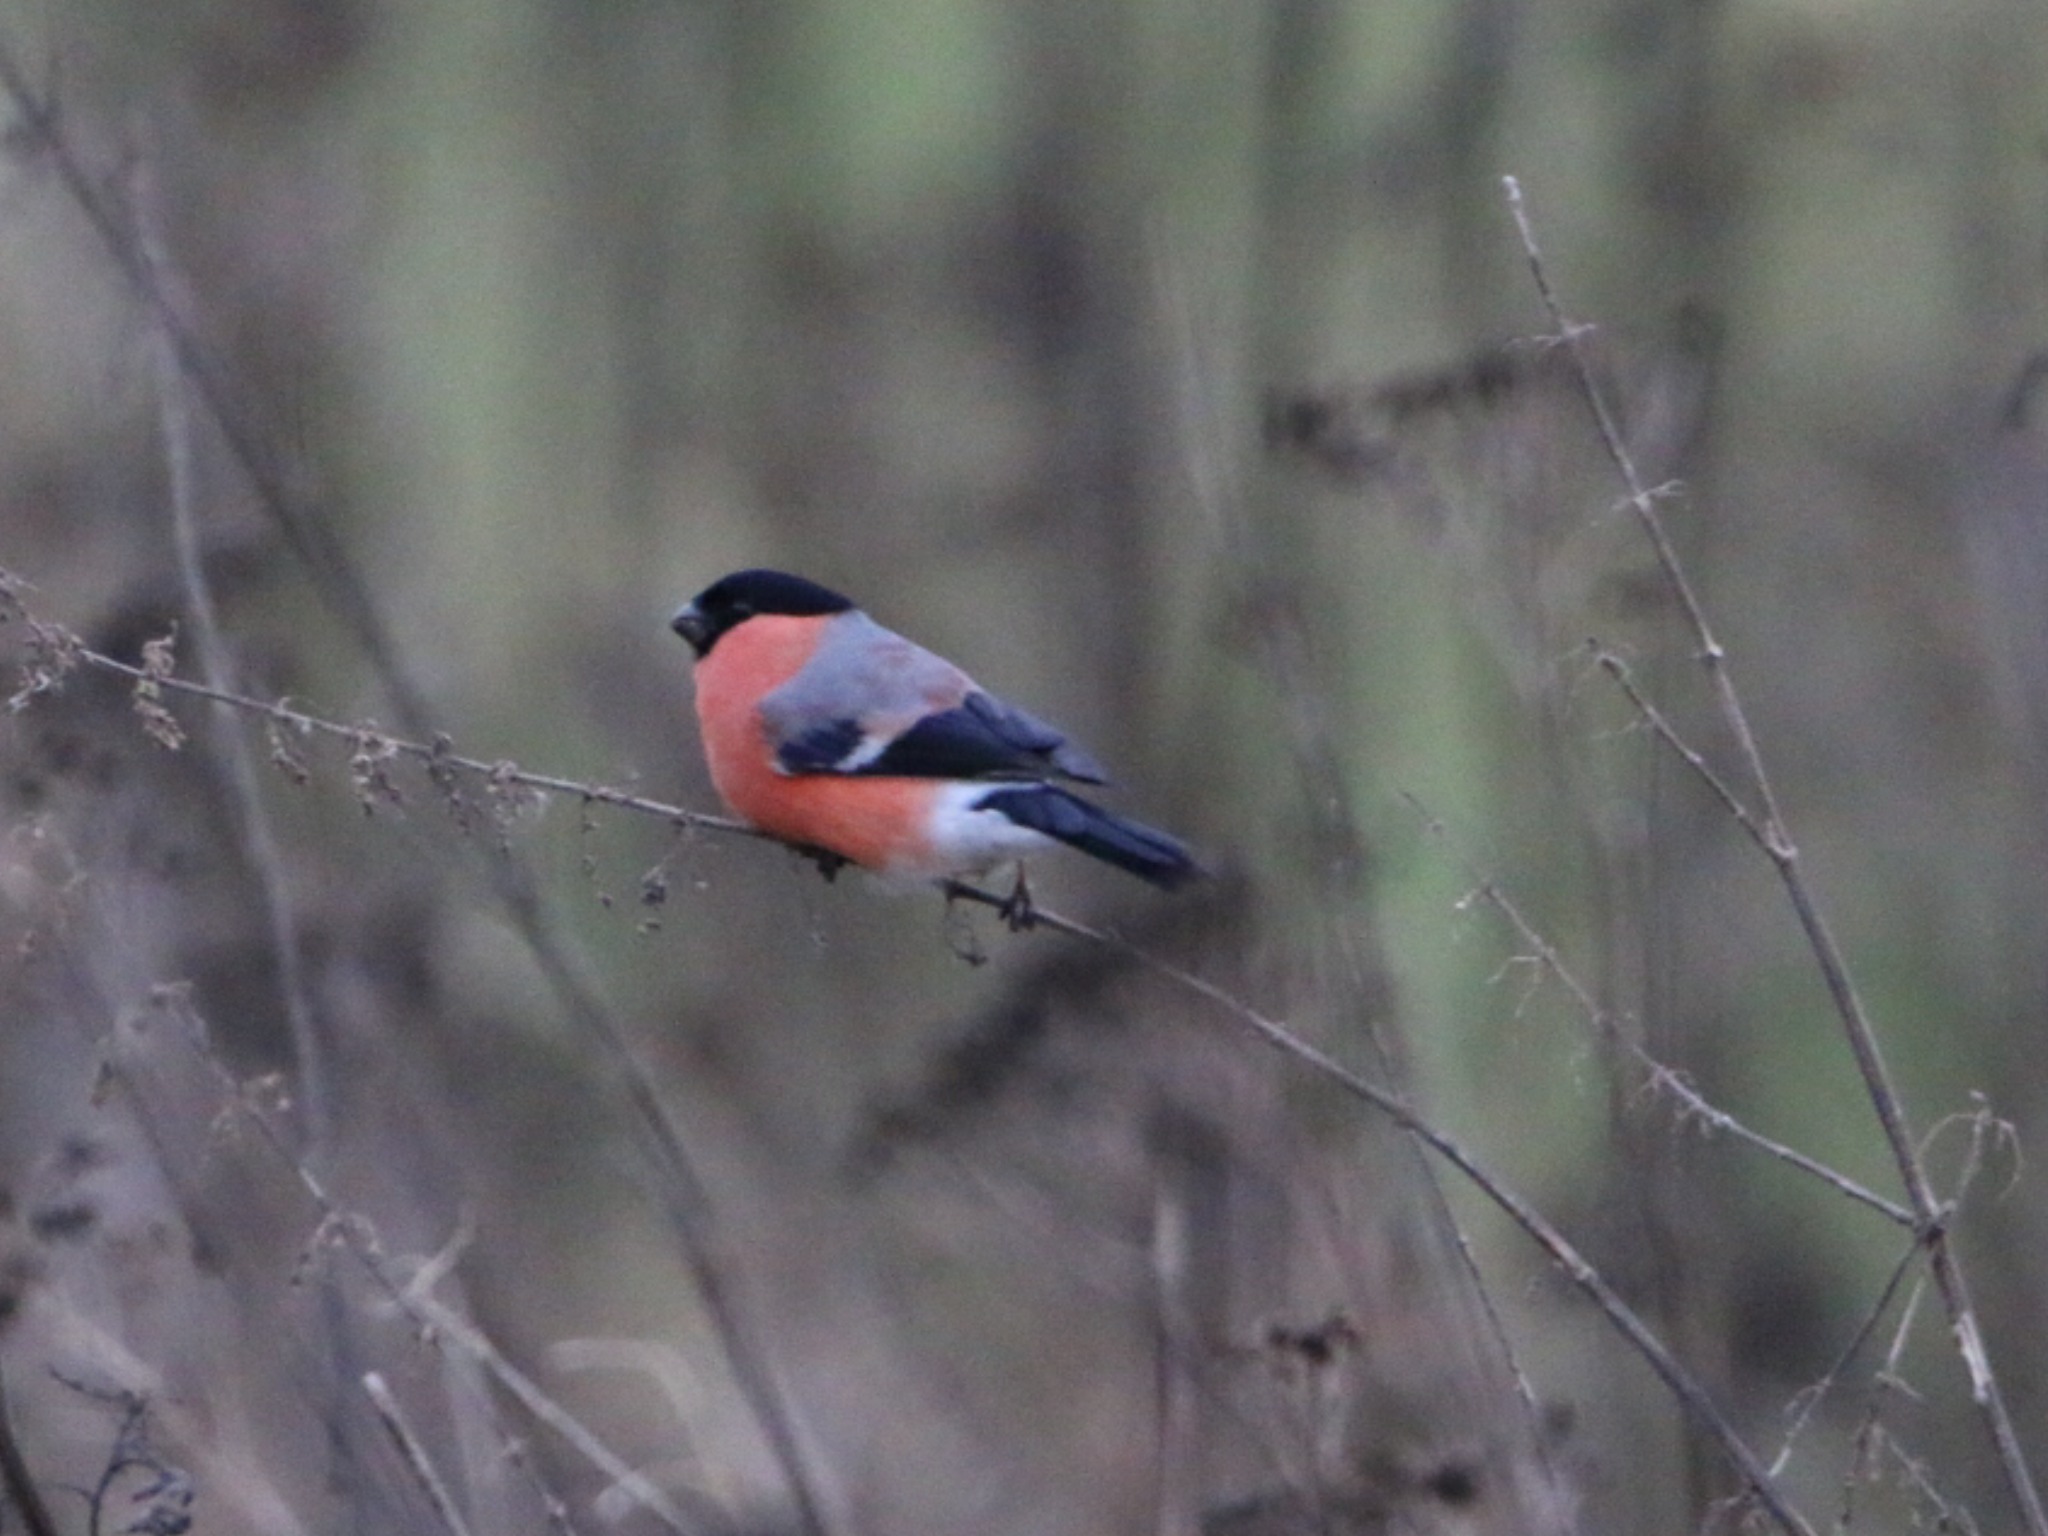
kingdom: Animalia
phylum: Chordata
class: Aves
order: Passeriformes
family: Fringillidae
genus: Pyrrhula
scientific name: Pyrrhula pyrrhula
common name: Dompap
